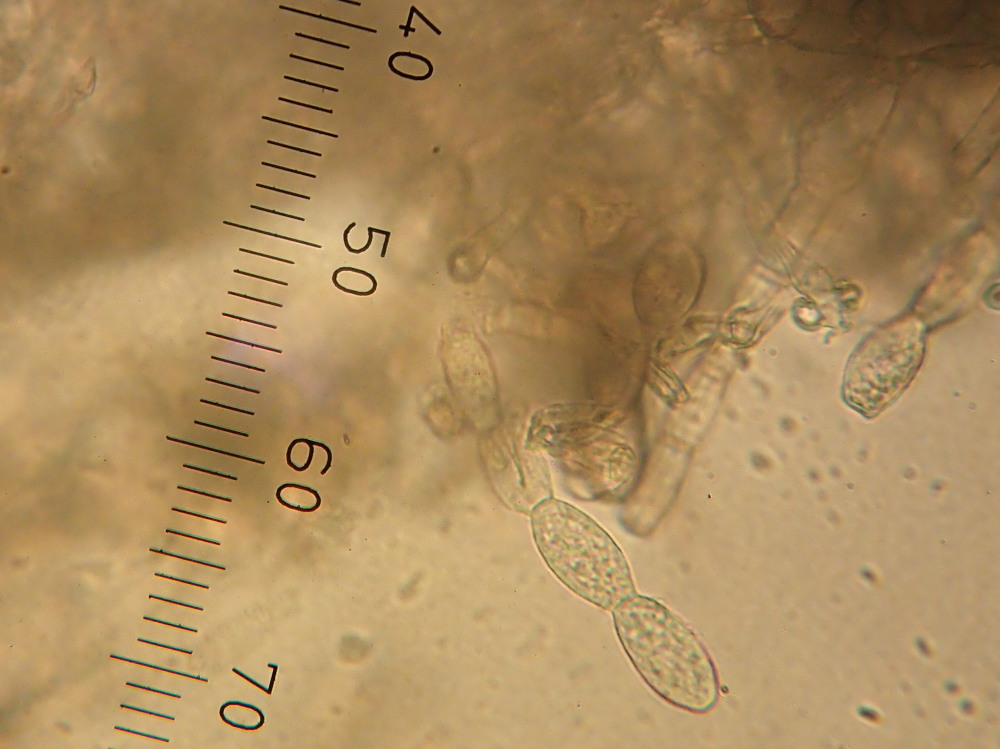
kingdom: Fungi
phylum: Ascomycota
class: Leotiomycetes
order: Helotiales
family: Erysiphaceae
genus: Blumeria
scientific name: Blumeria graminis
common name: græs-meldug
